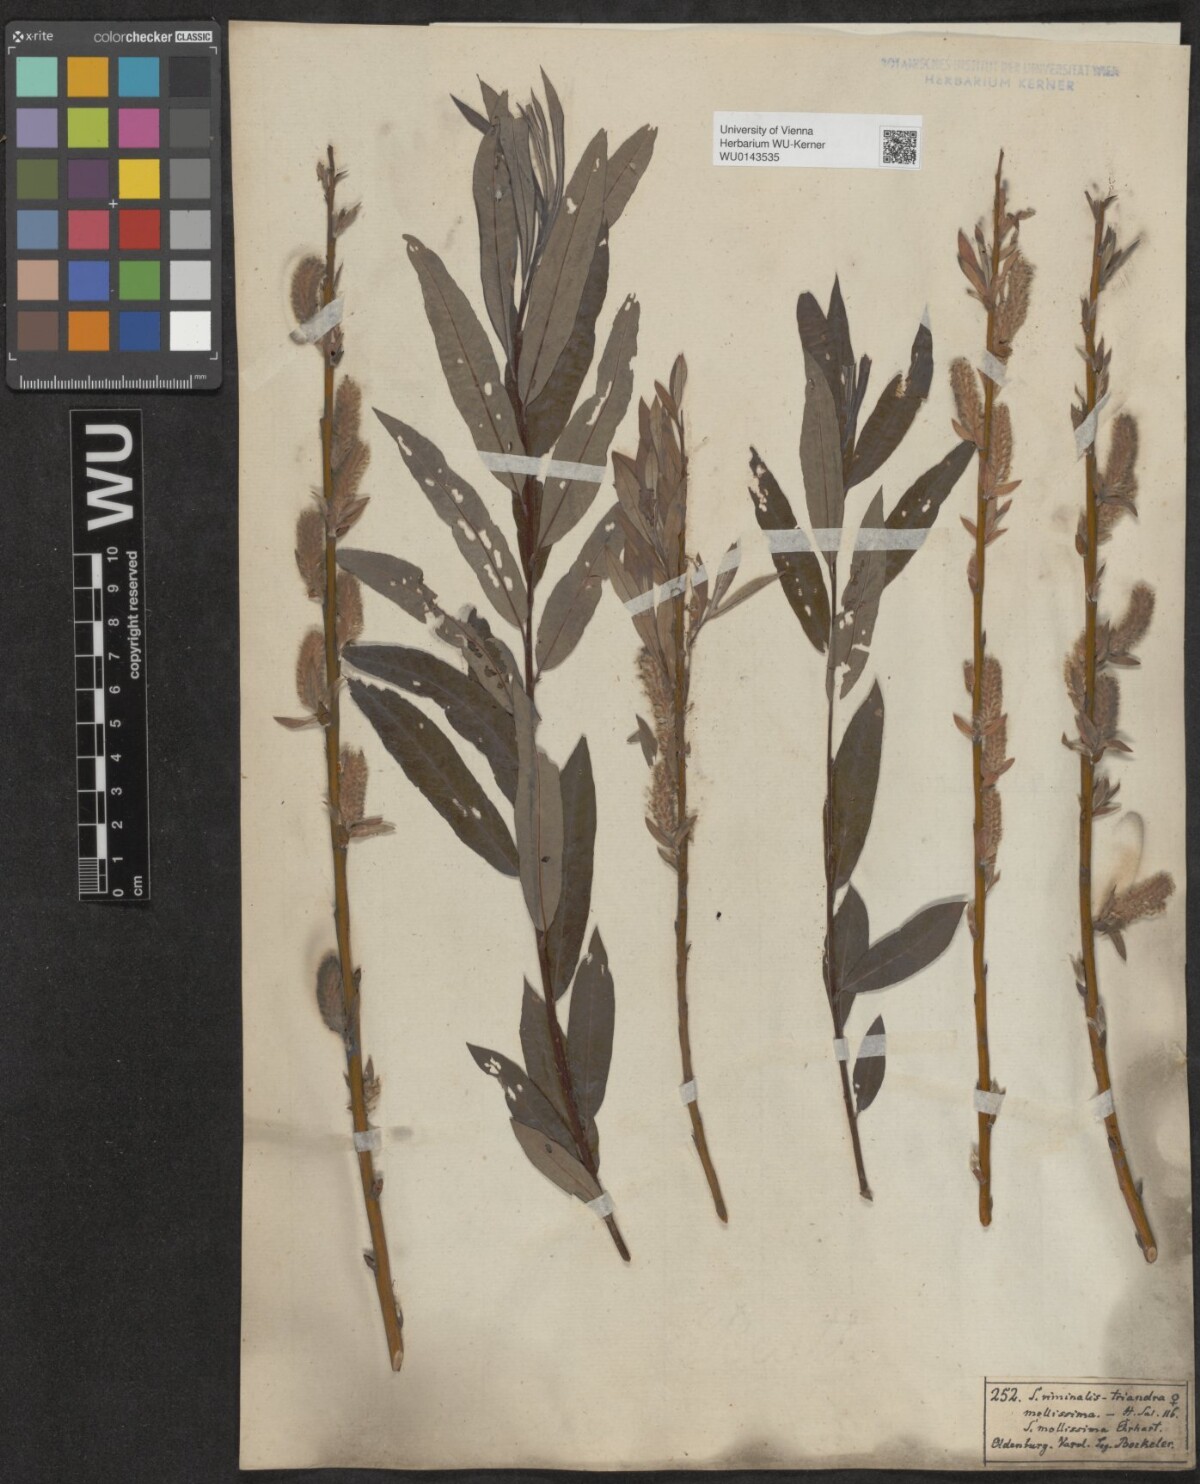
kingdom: Plantae
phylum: Tracheophyta
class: Magnoliopsida
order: Malpighiales
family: Salicaceae
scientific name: Salicaceae
